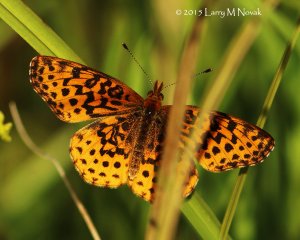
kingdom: Animalia
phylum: Arthropoda
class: Insecta
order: Lepidoptera
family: Nymphalidae
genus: Clossiana
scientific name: Clossiana toddi
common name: Meadow Fritillary
